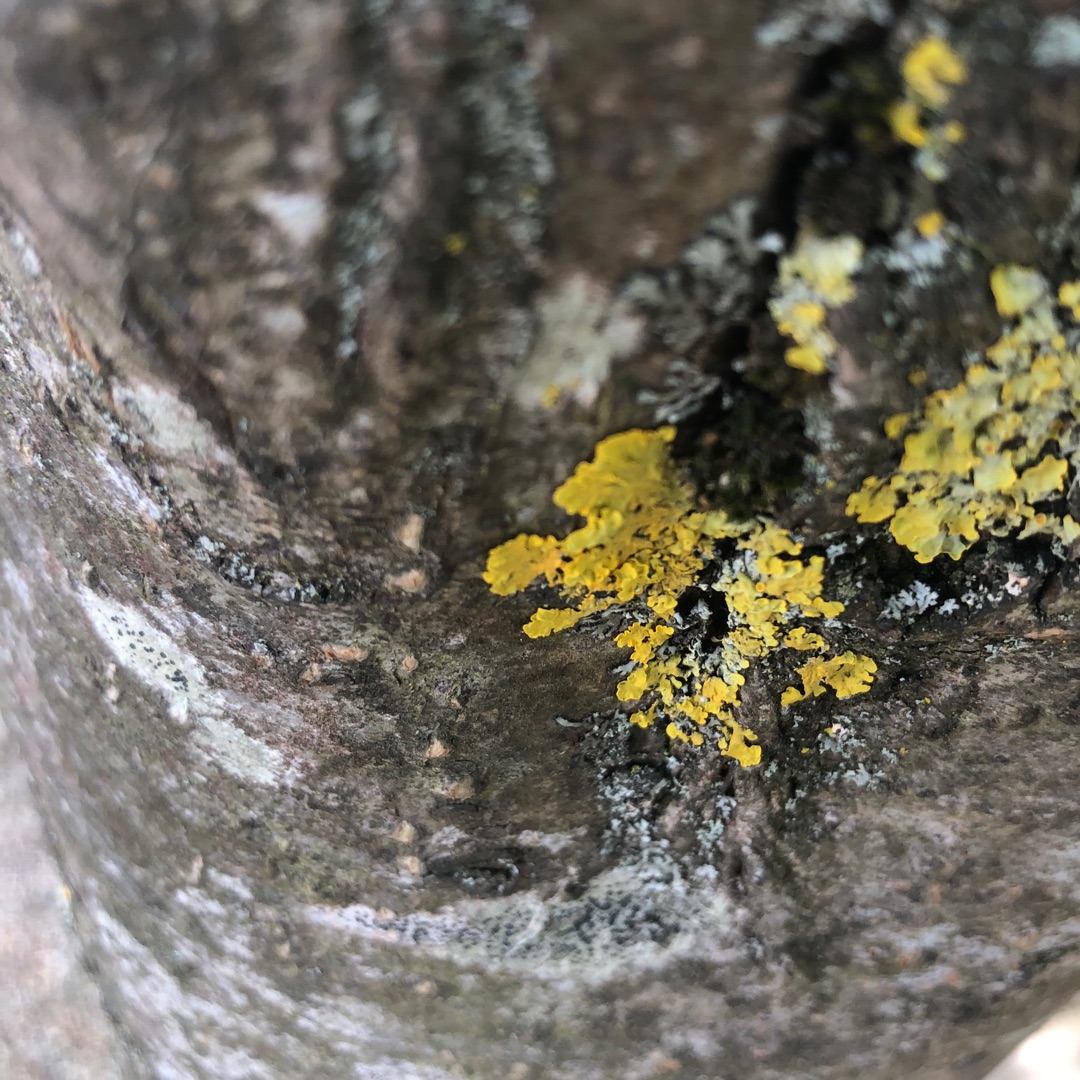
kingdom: Fungi
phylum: Ascomycota
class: Lecanoromycetes
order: Teloschistales
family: Teloschistaceae
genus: Xanthoria
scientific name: Xanthoria parietina
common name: Almindelig væggelav
